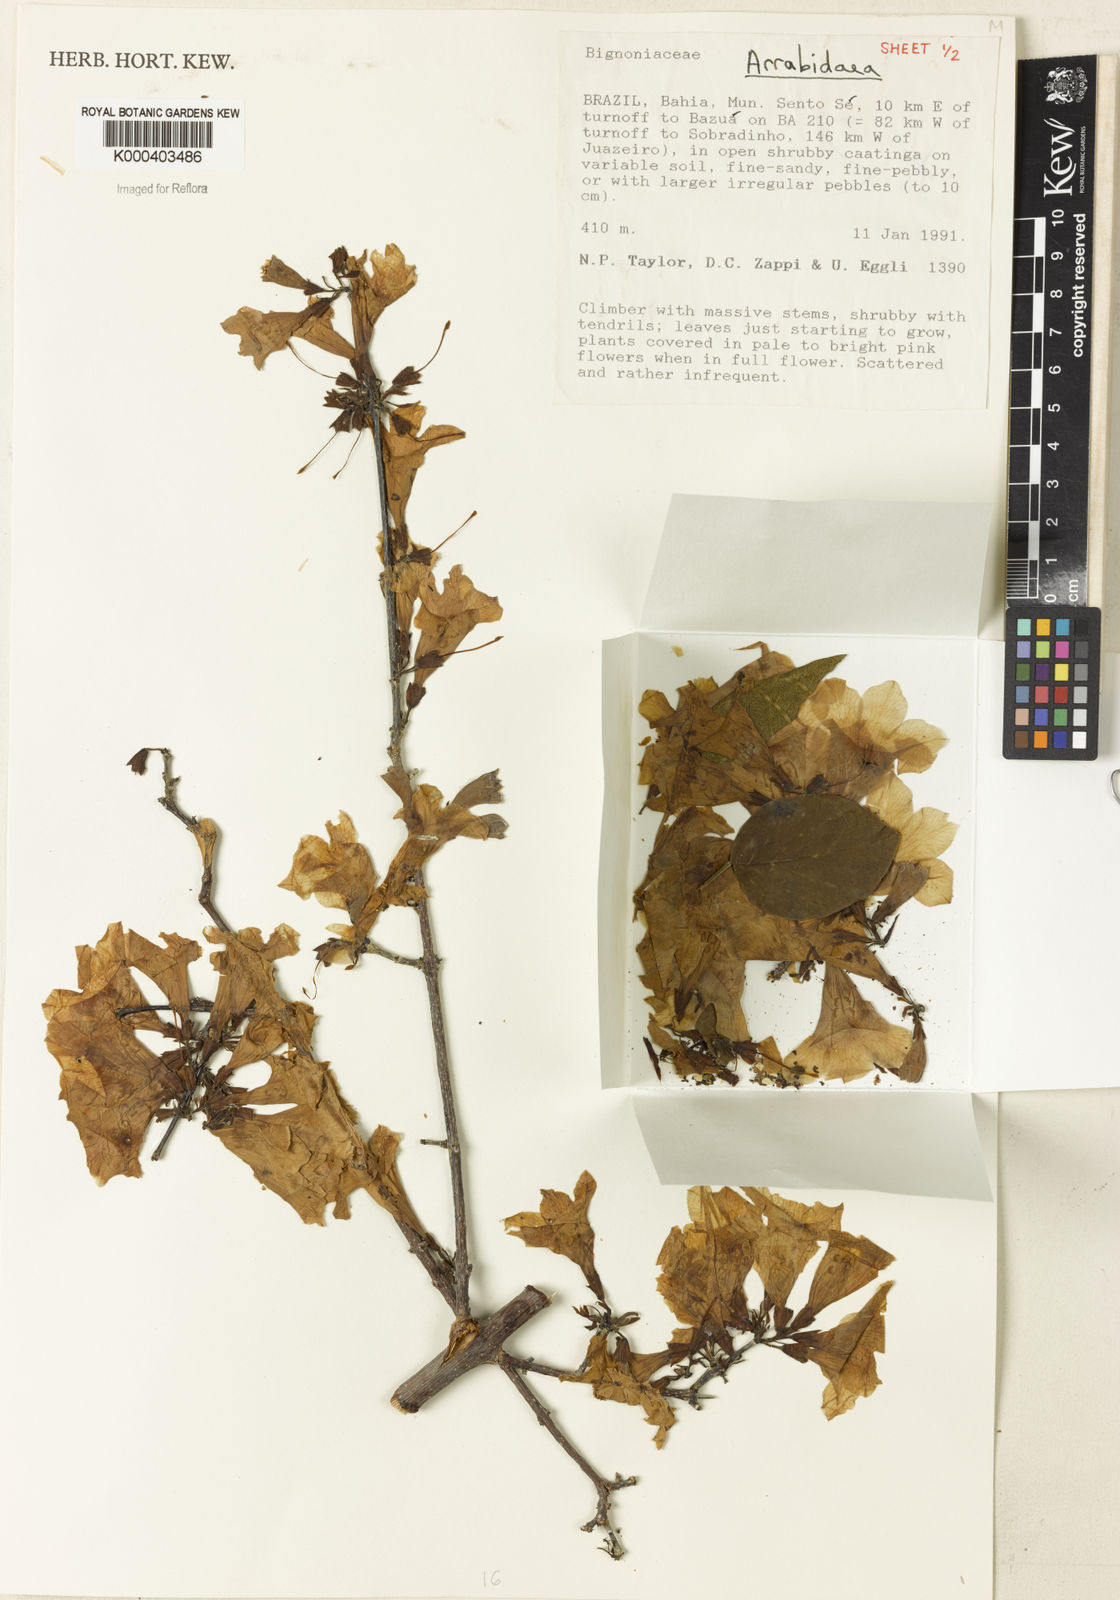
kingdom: Plantae
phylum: Tracheophyta
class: Magnoliopsida
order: Rosales
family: Rhamnaceae
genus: Arrabidaea
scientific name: Arrabidaea
